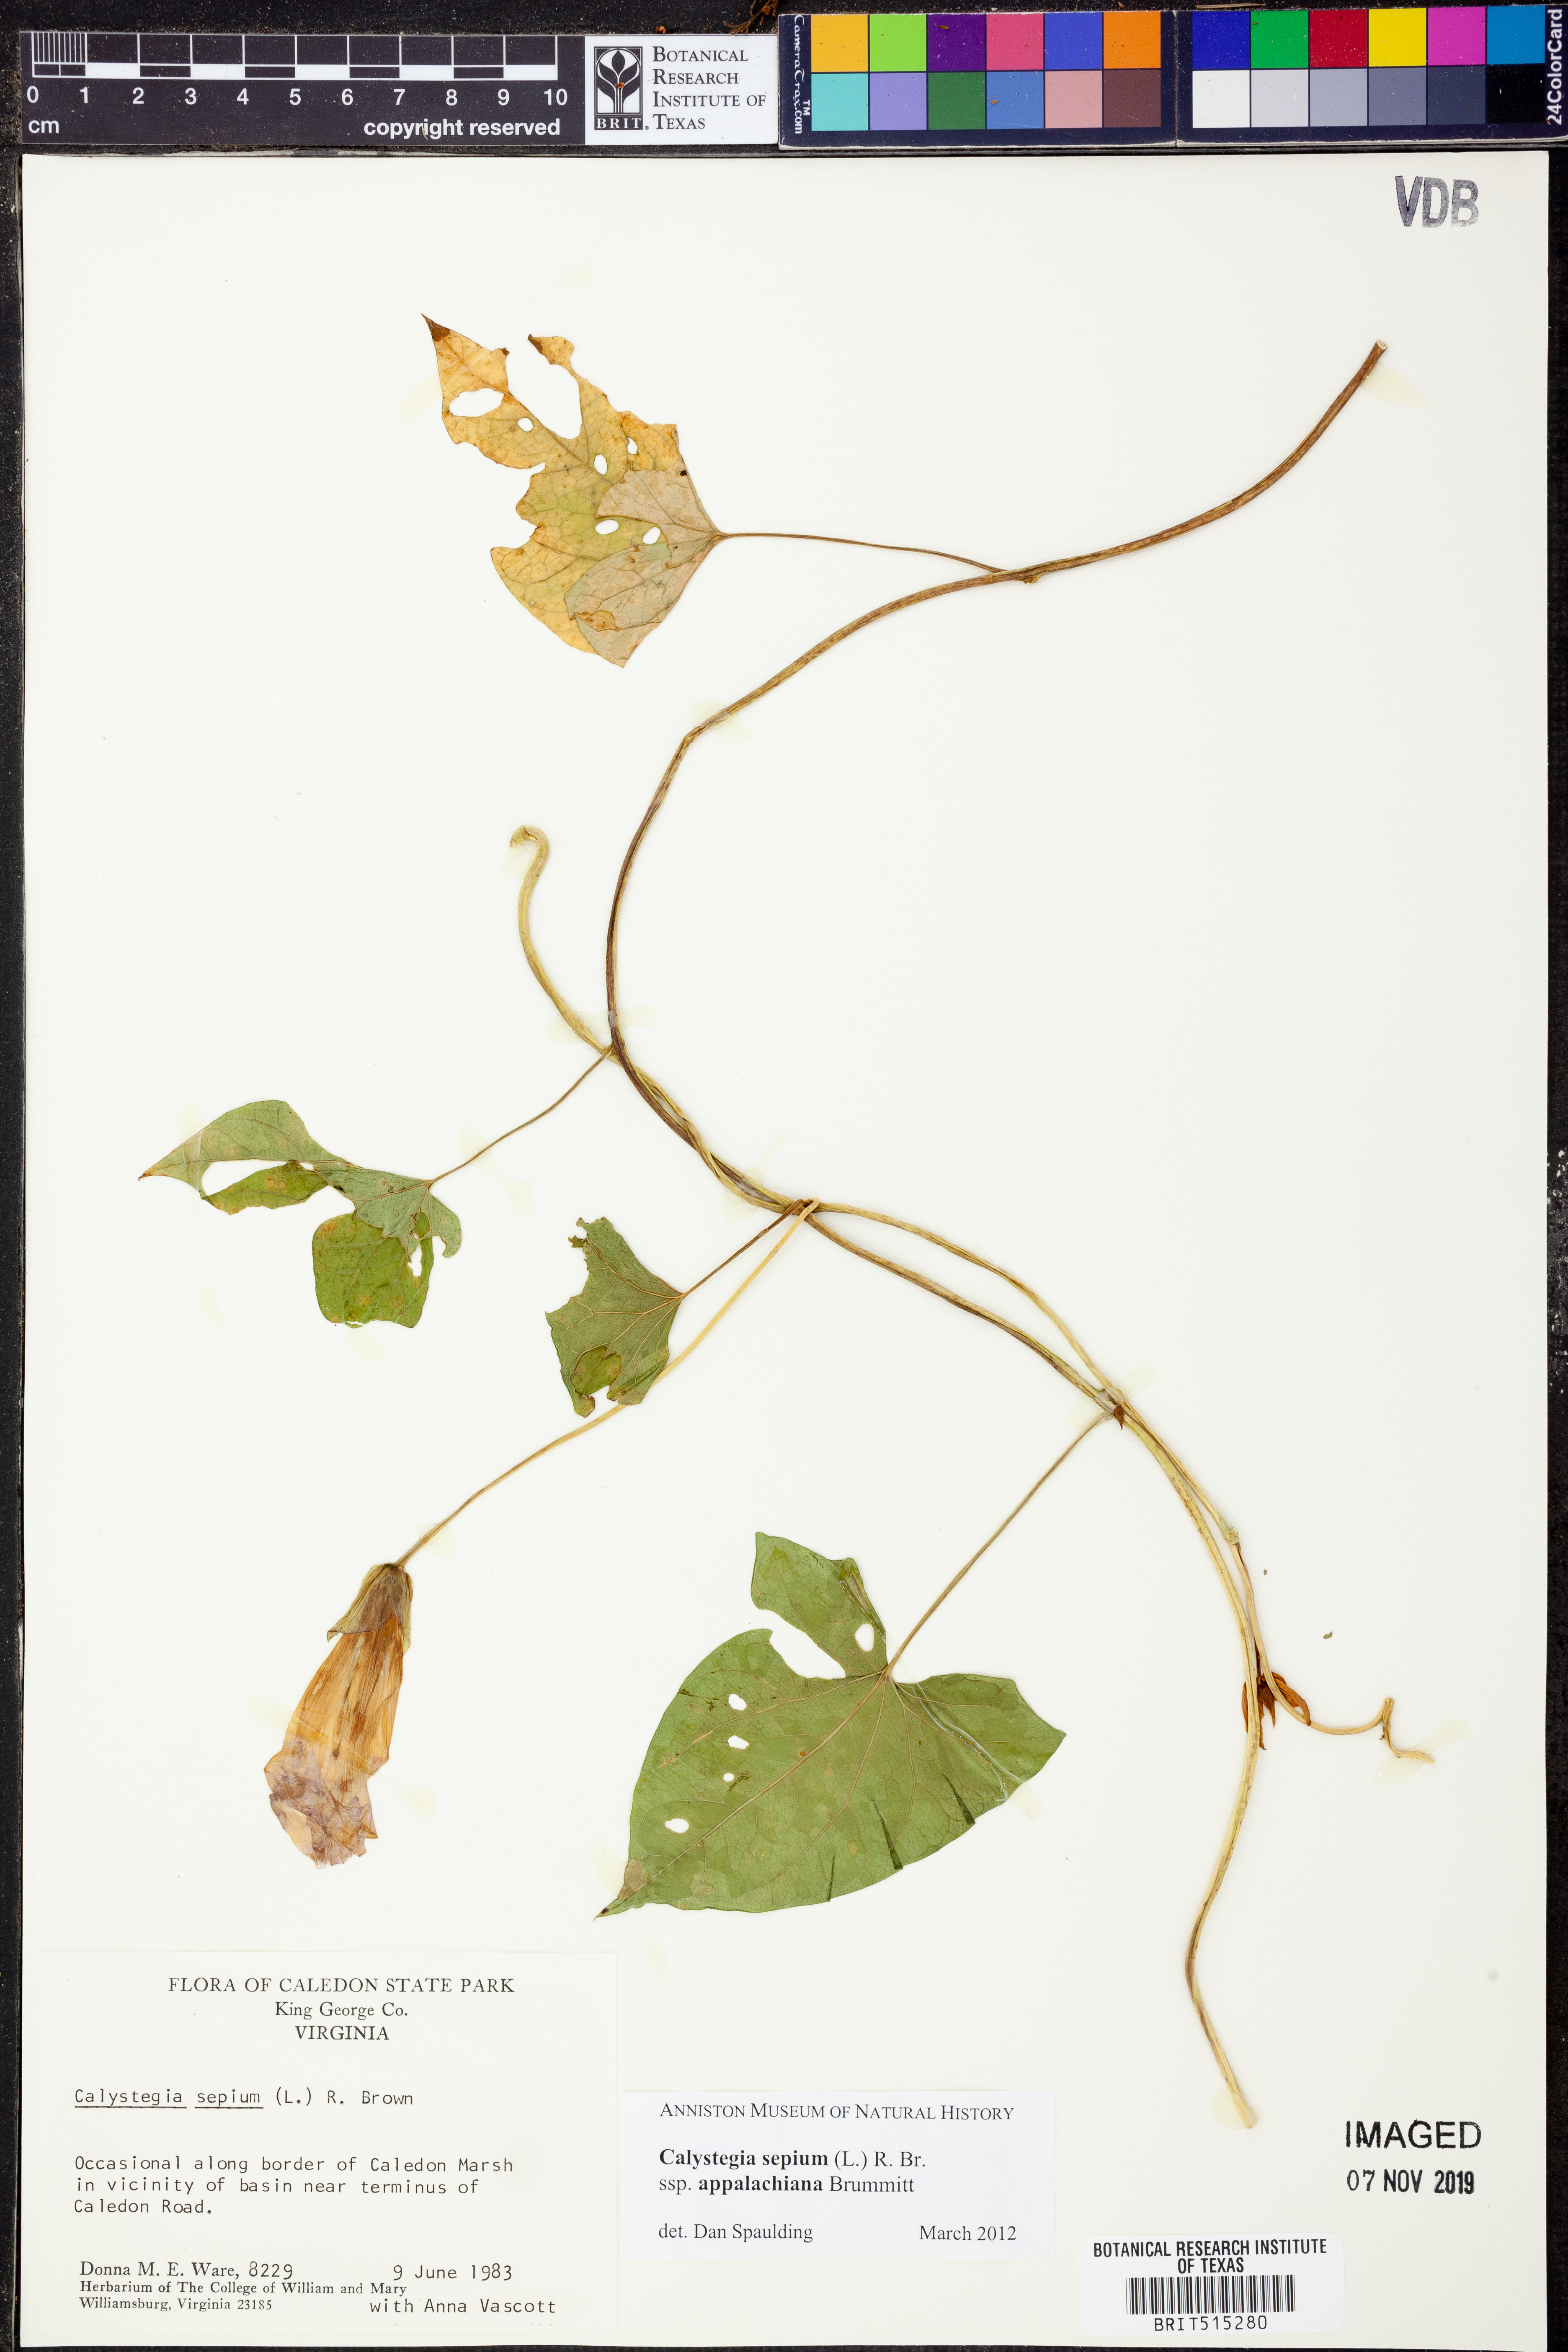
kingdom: Plantae
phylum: Tracheophyta
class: Magnoliopsida
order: Solanales
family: Convolvulaceae
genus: Calystegia
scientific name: Calystegia sepium
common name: Hedge bindweed
